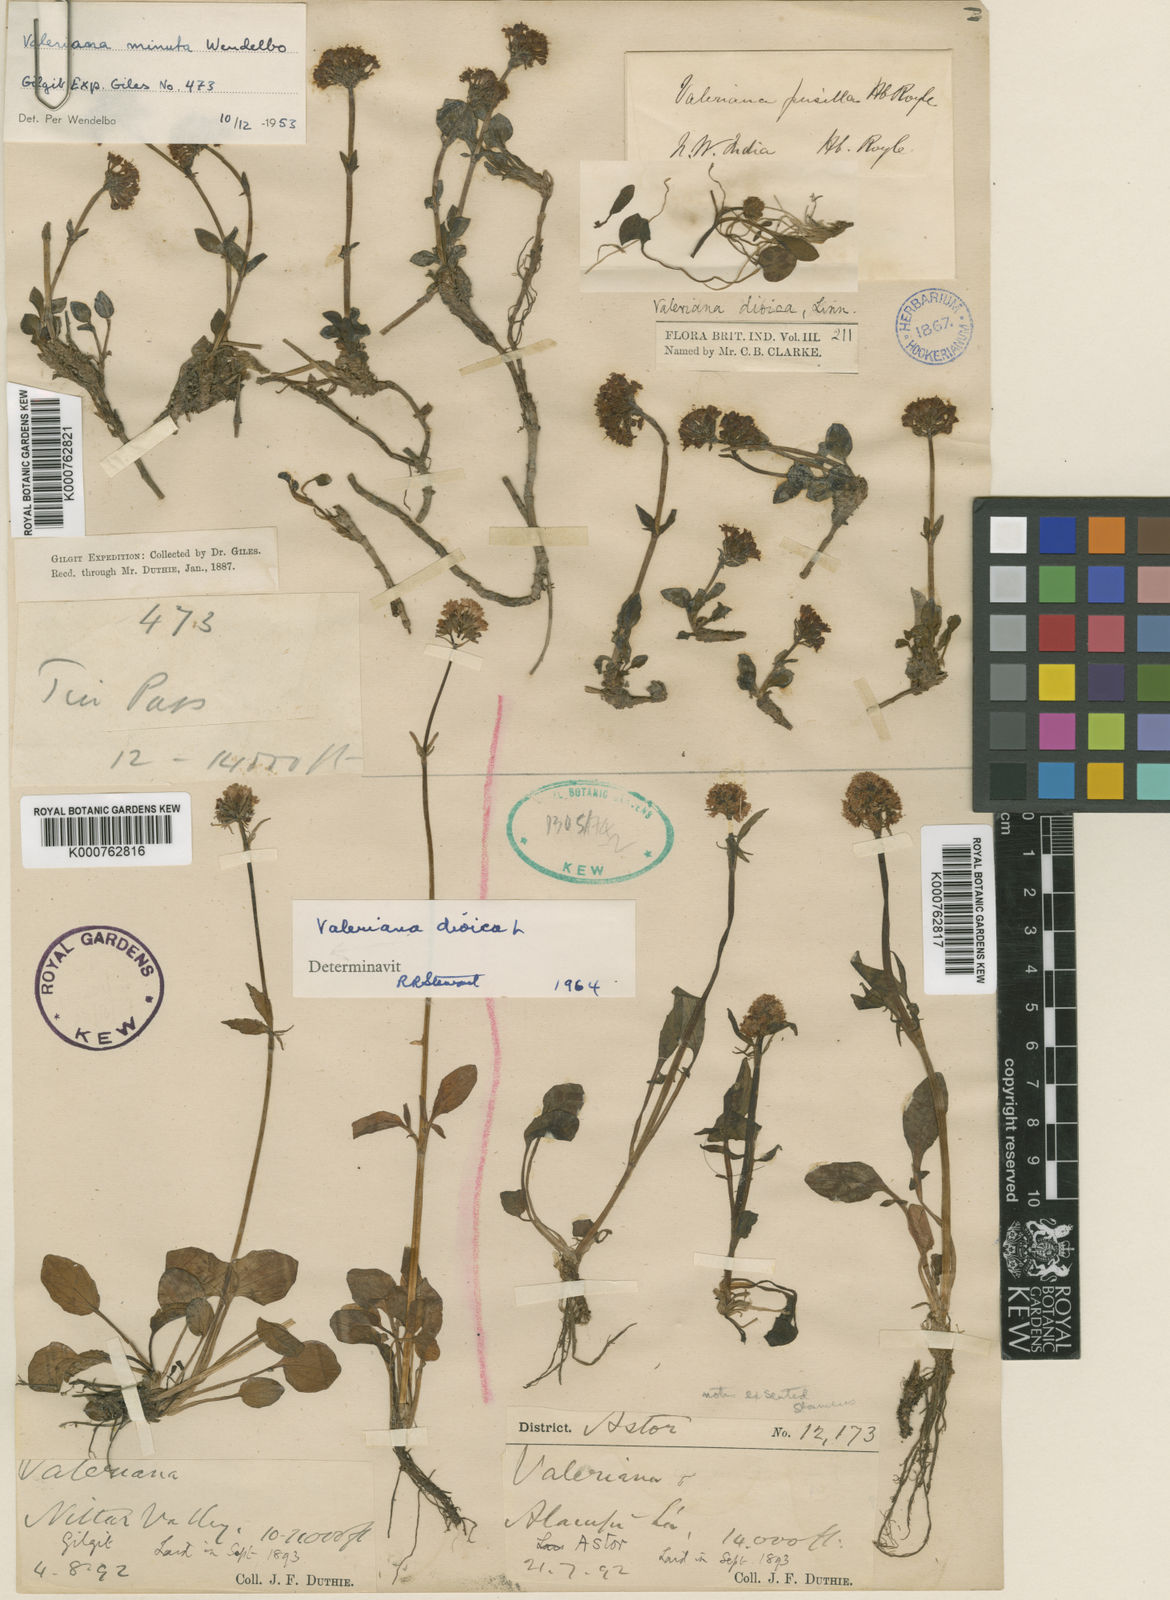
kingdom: Plantae
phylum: Tracheophyta
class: Magnoliopsida
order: Dipsacales
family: Caprifoliaceae
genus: Valeriana
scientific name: Valeriana beddomei
